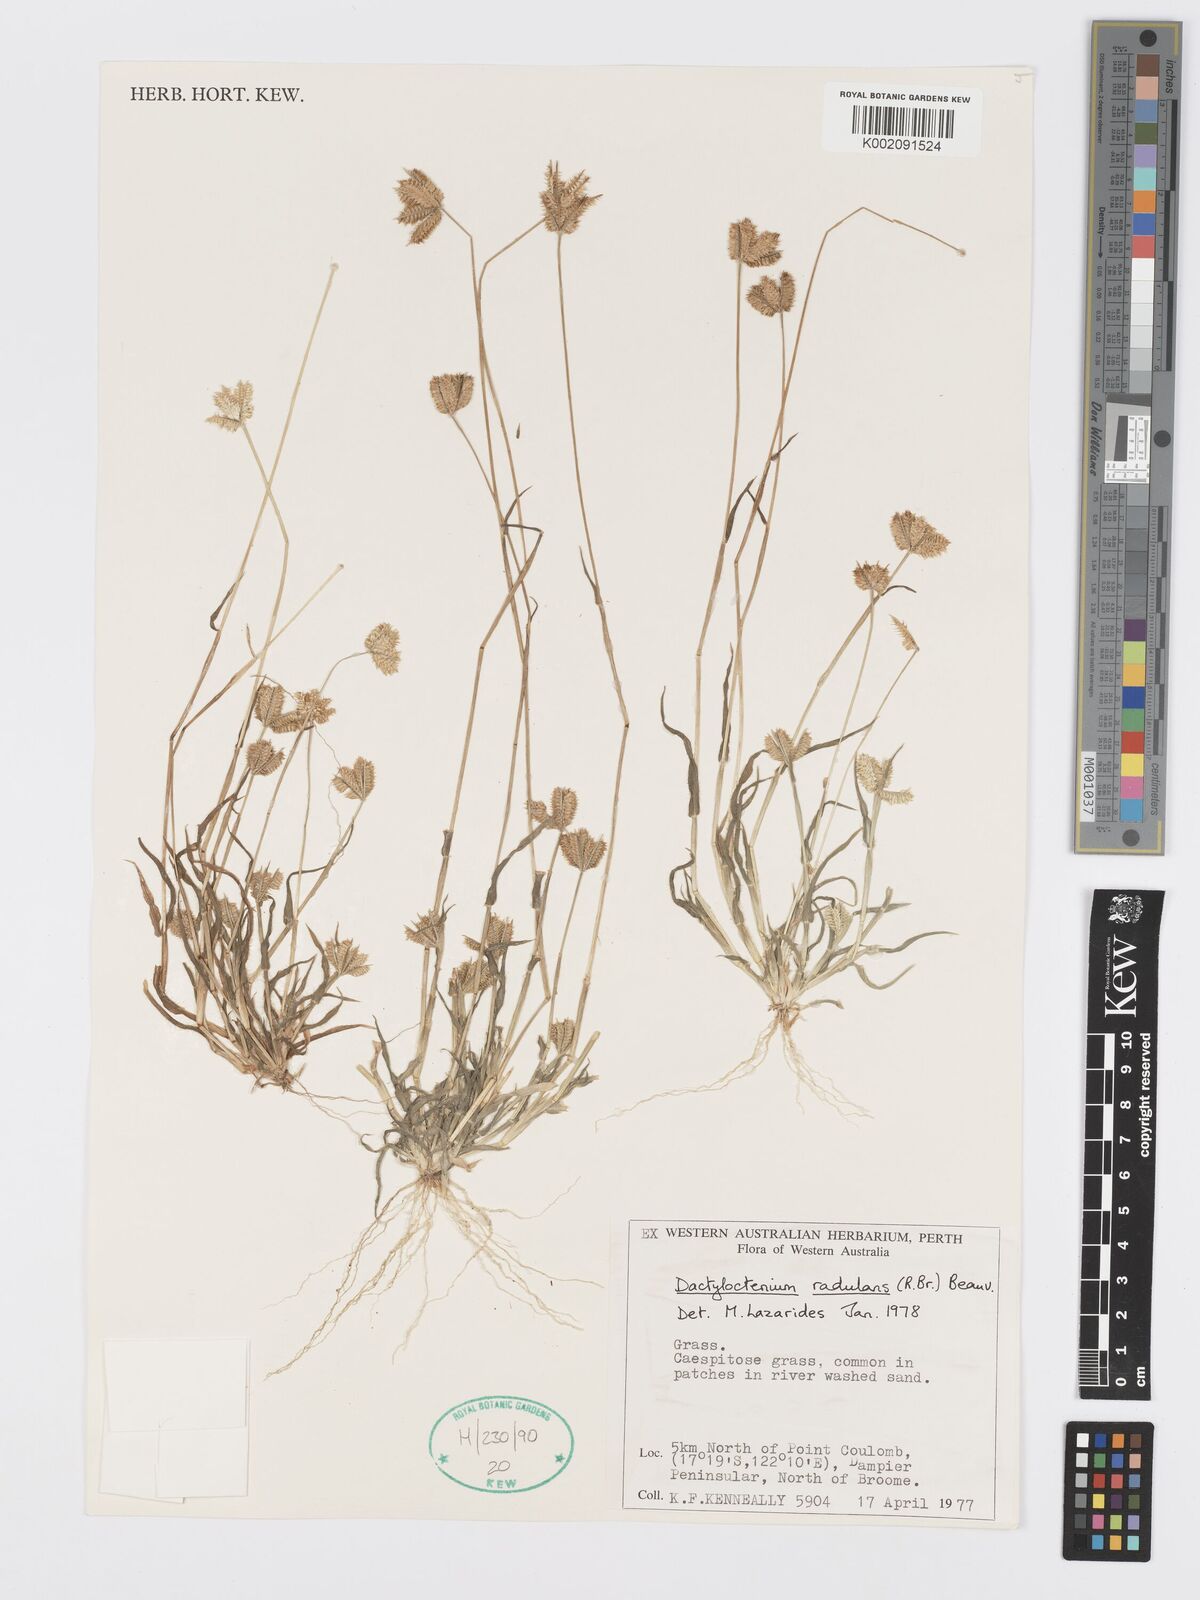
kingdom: Plantae
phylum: Tracheophyta
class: Liliopsida
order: Poales
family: Poaceae
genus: Dactyloctenium
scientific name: Dactyloctenium radulans
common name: Button-grass
